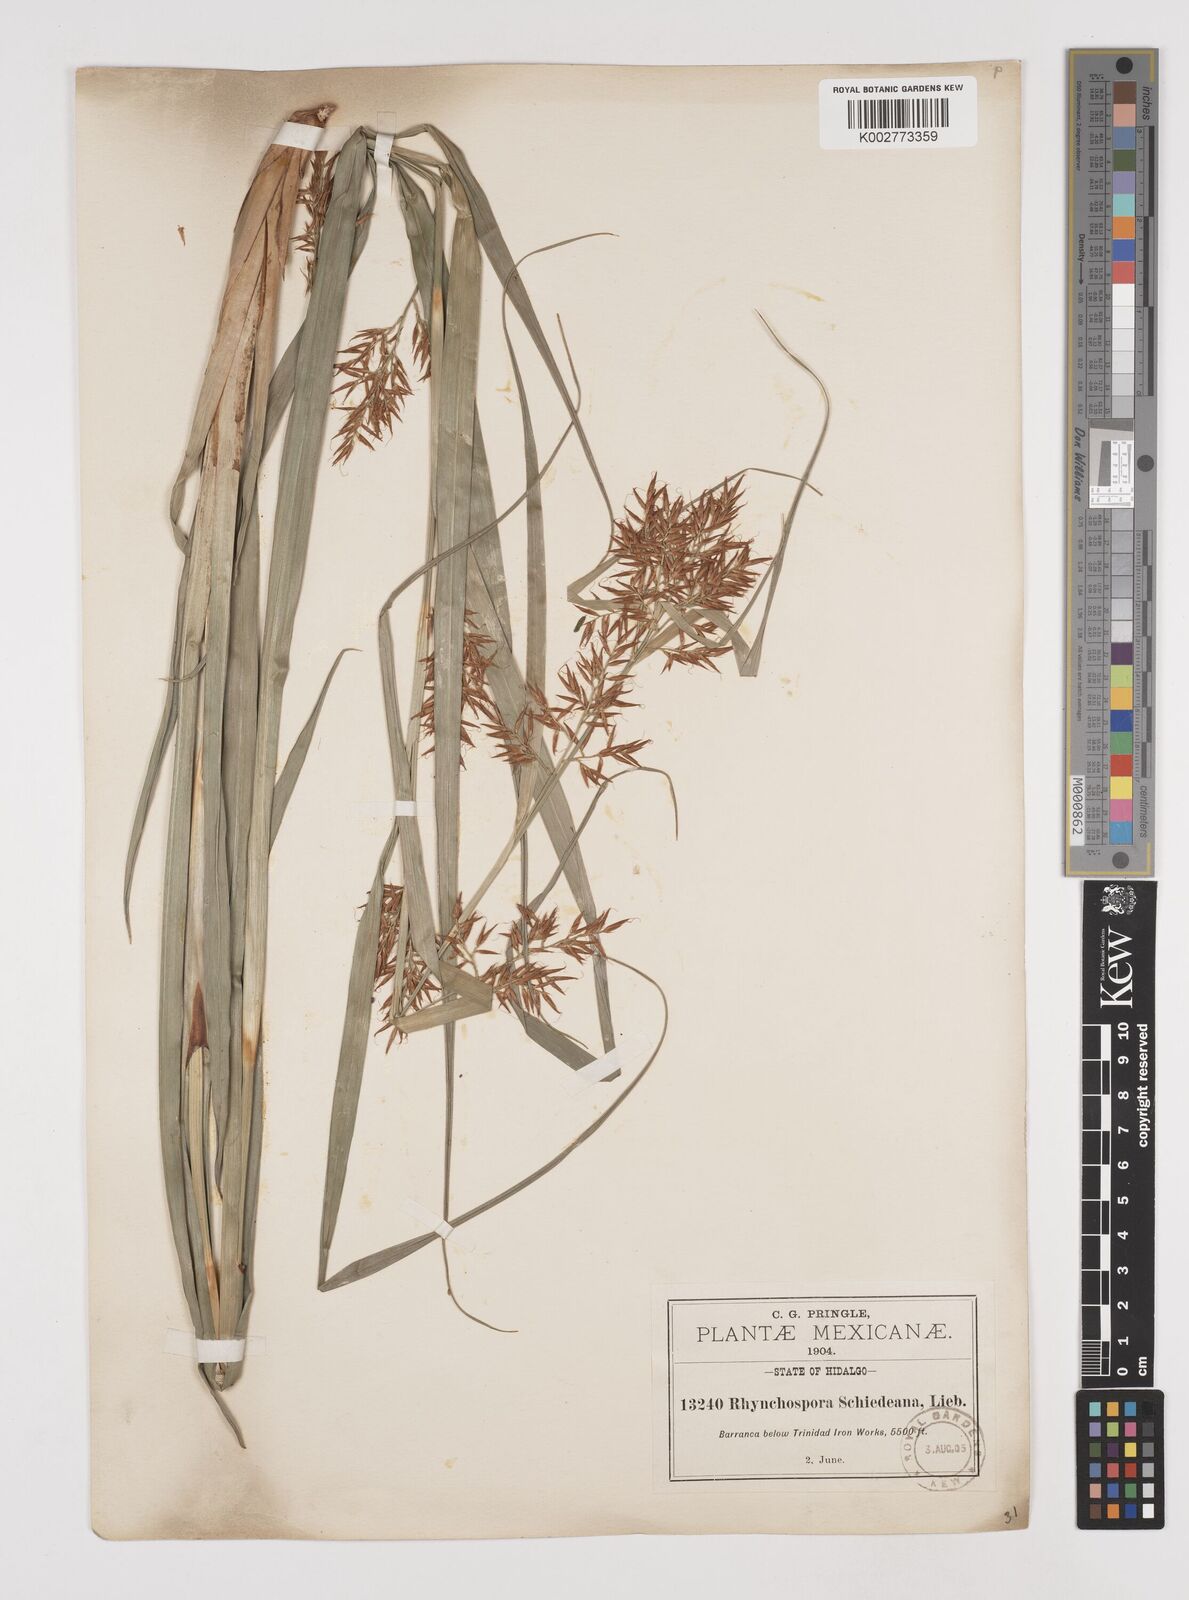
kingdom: Plantae
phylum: Tracheophyta
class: Liliopsida
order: Poales
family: Cyperaceae
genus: Rhynchospora
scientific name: Rhynchospora schiedeana
